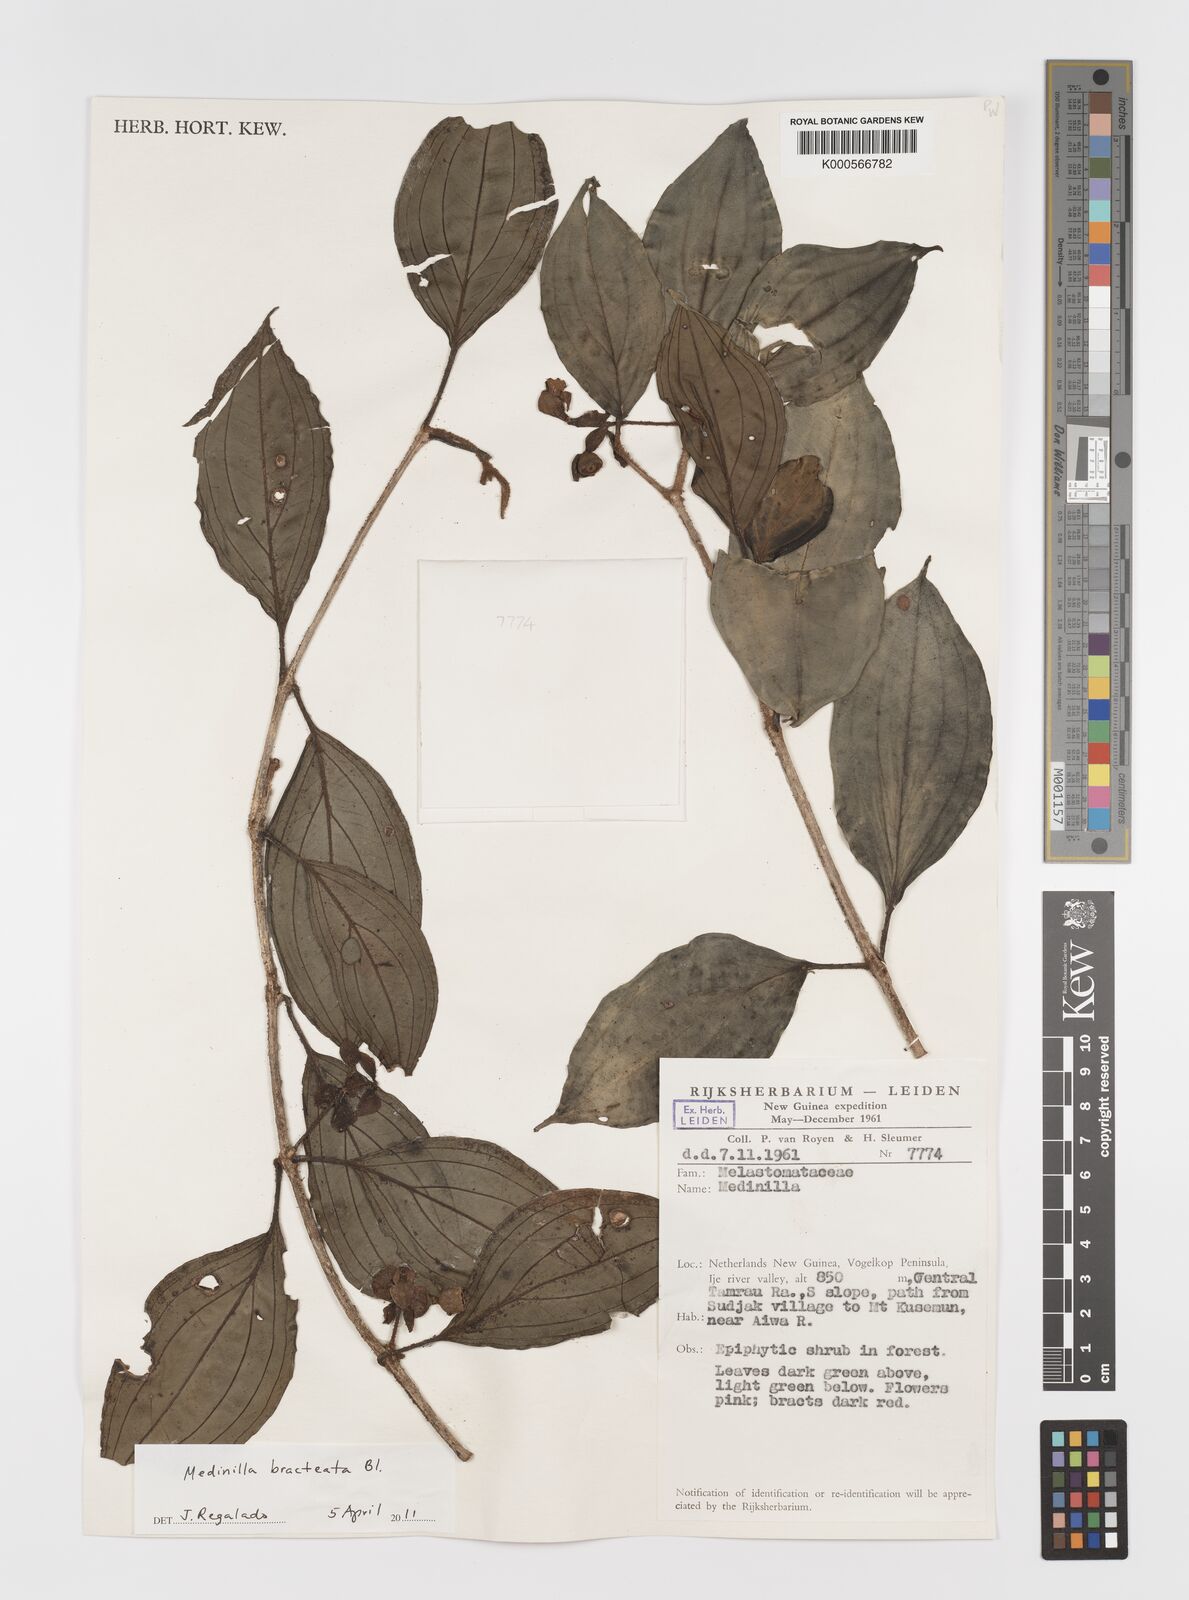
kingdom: Plantae
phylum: Tracheophyta
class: Magnoliopsida
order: Myrtales
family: Melastomataceae
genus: Medinilla
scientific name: Medinilla bracteata
